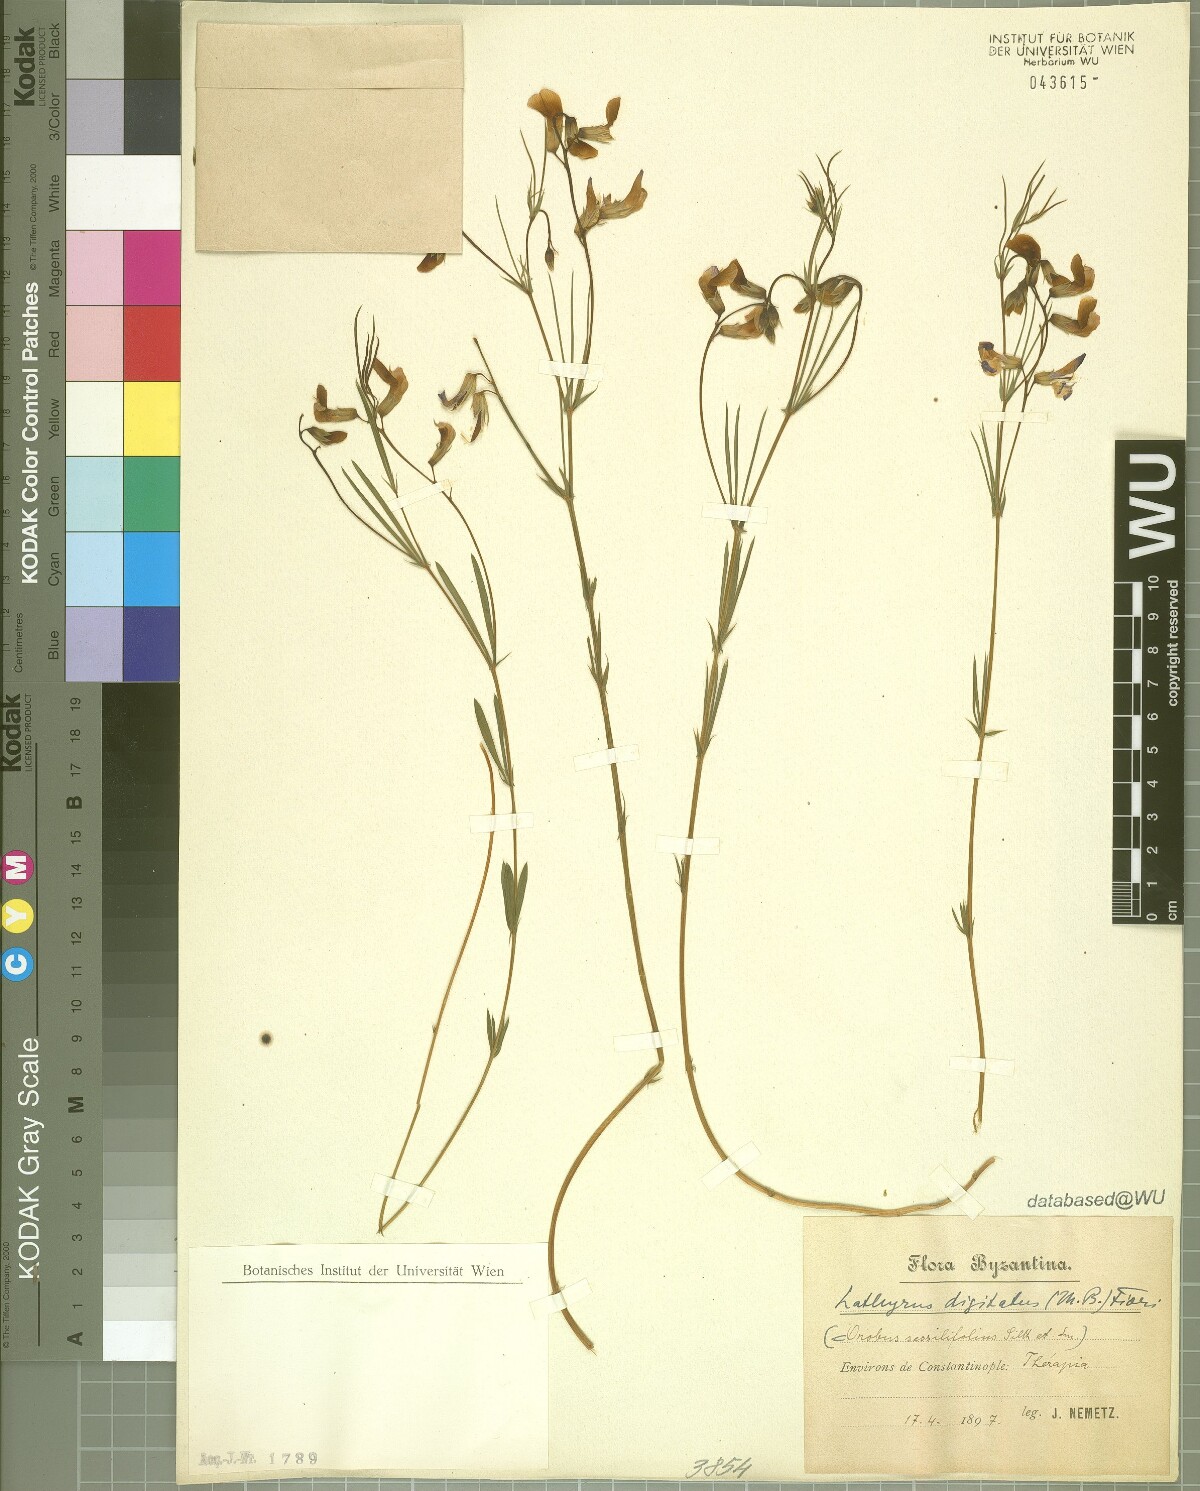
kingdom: Plantae
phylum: Tracheophyta
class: Magnoliopsida
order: Fabales
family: Fabaceae
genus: Lathyrus
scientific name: Lathyrus digitatus
